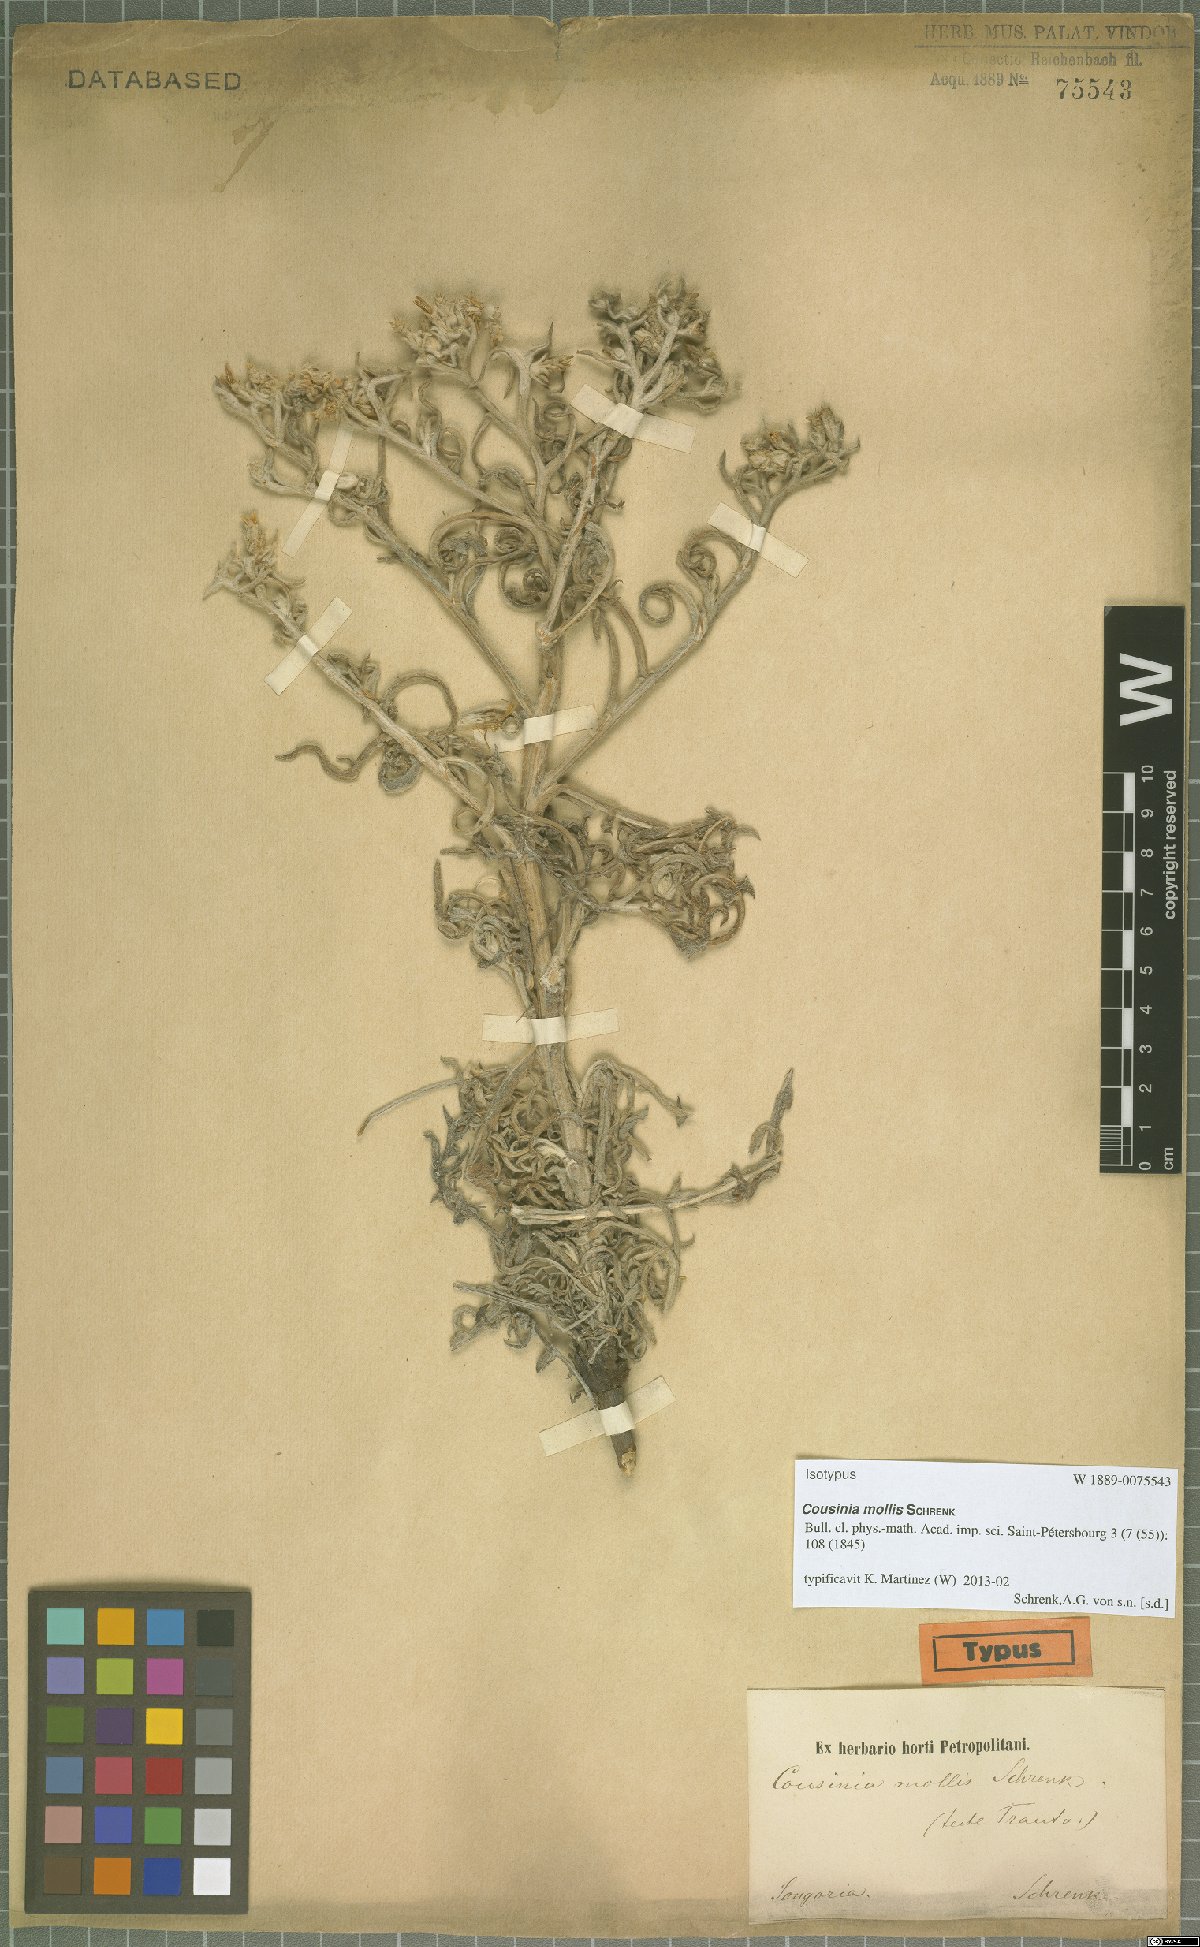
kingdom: Plantae
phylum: Tracheophyta
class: Magnoliopsida
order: Asterales
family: Asteraceae
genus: Cousinia
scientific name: Cousinia mollis
